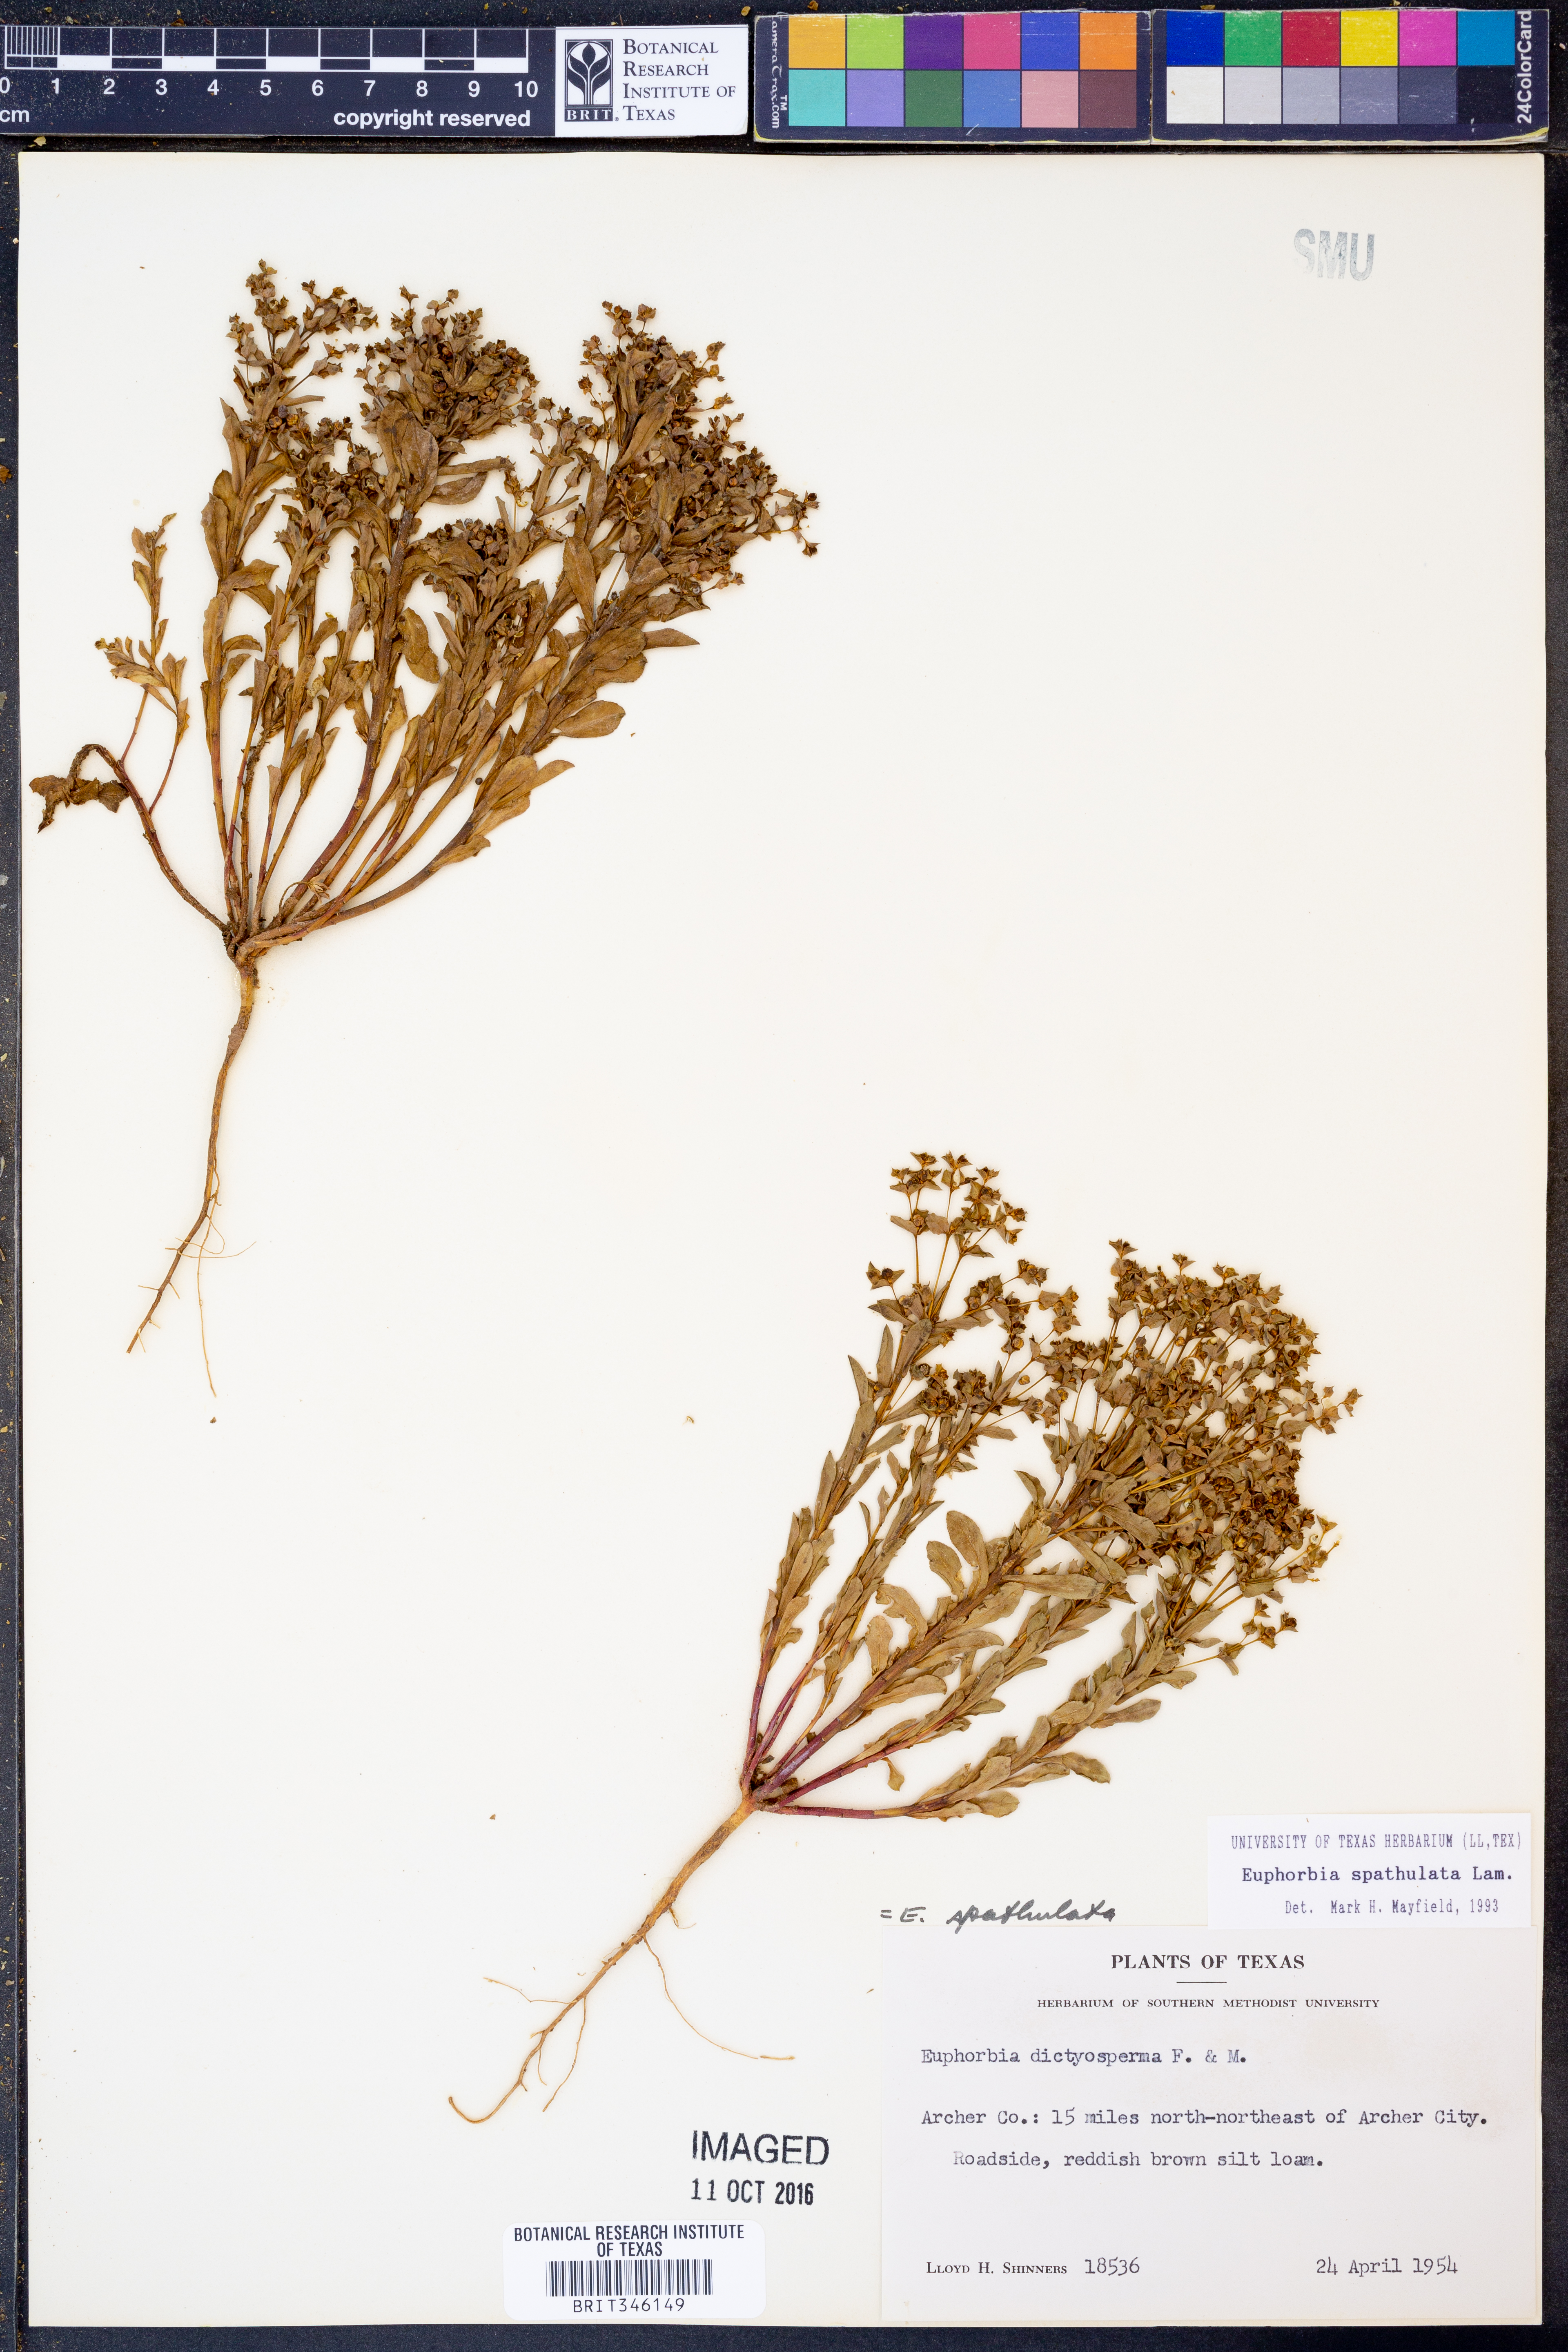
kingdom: Plantae
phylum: Tracheophyta
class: Magnoliopsida
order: Malpighiales
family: Euphorbiaceae
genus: Euphorbia
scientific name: Euphorbia spathulata
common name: Blunt spurge
